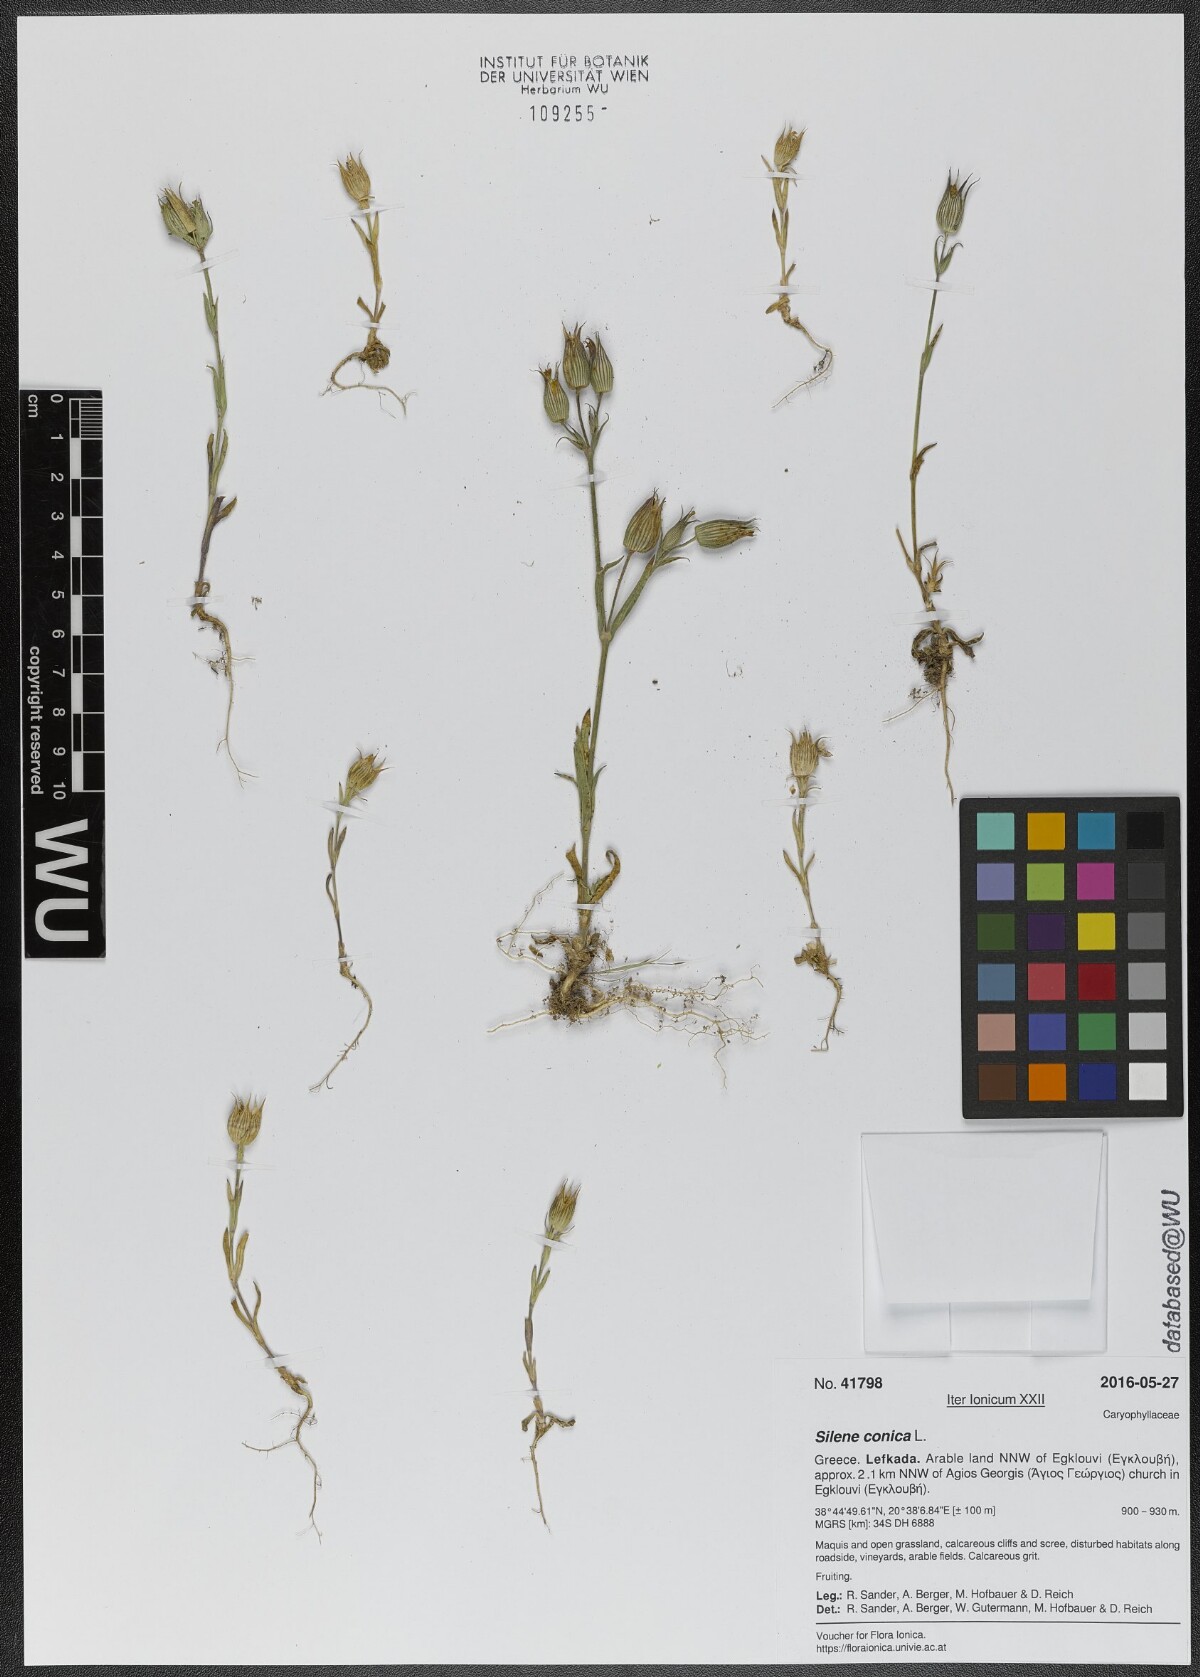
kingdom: Plantae
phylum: Tracheophyta
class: Magnoliopsida
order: Caryophyllales
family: Caryophyllaceae
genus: Silene
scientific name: Silene conica
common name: Sand catchfly
